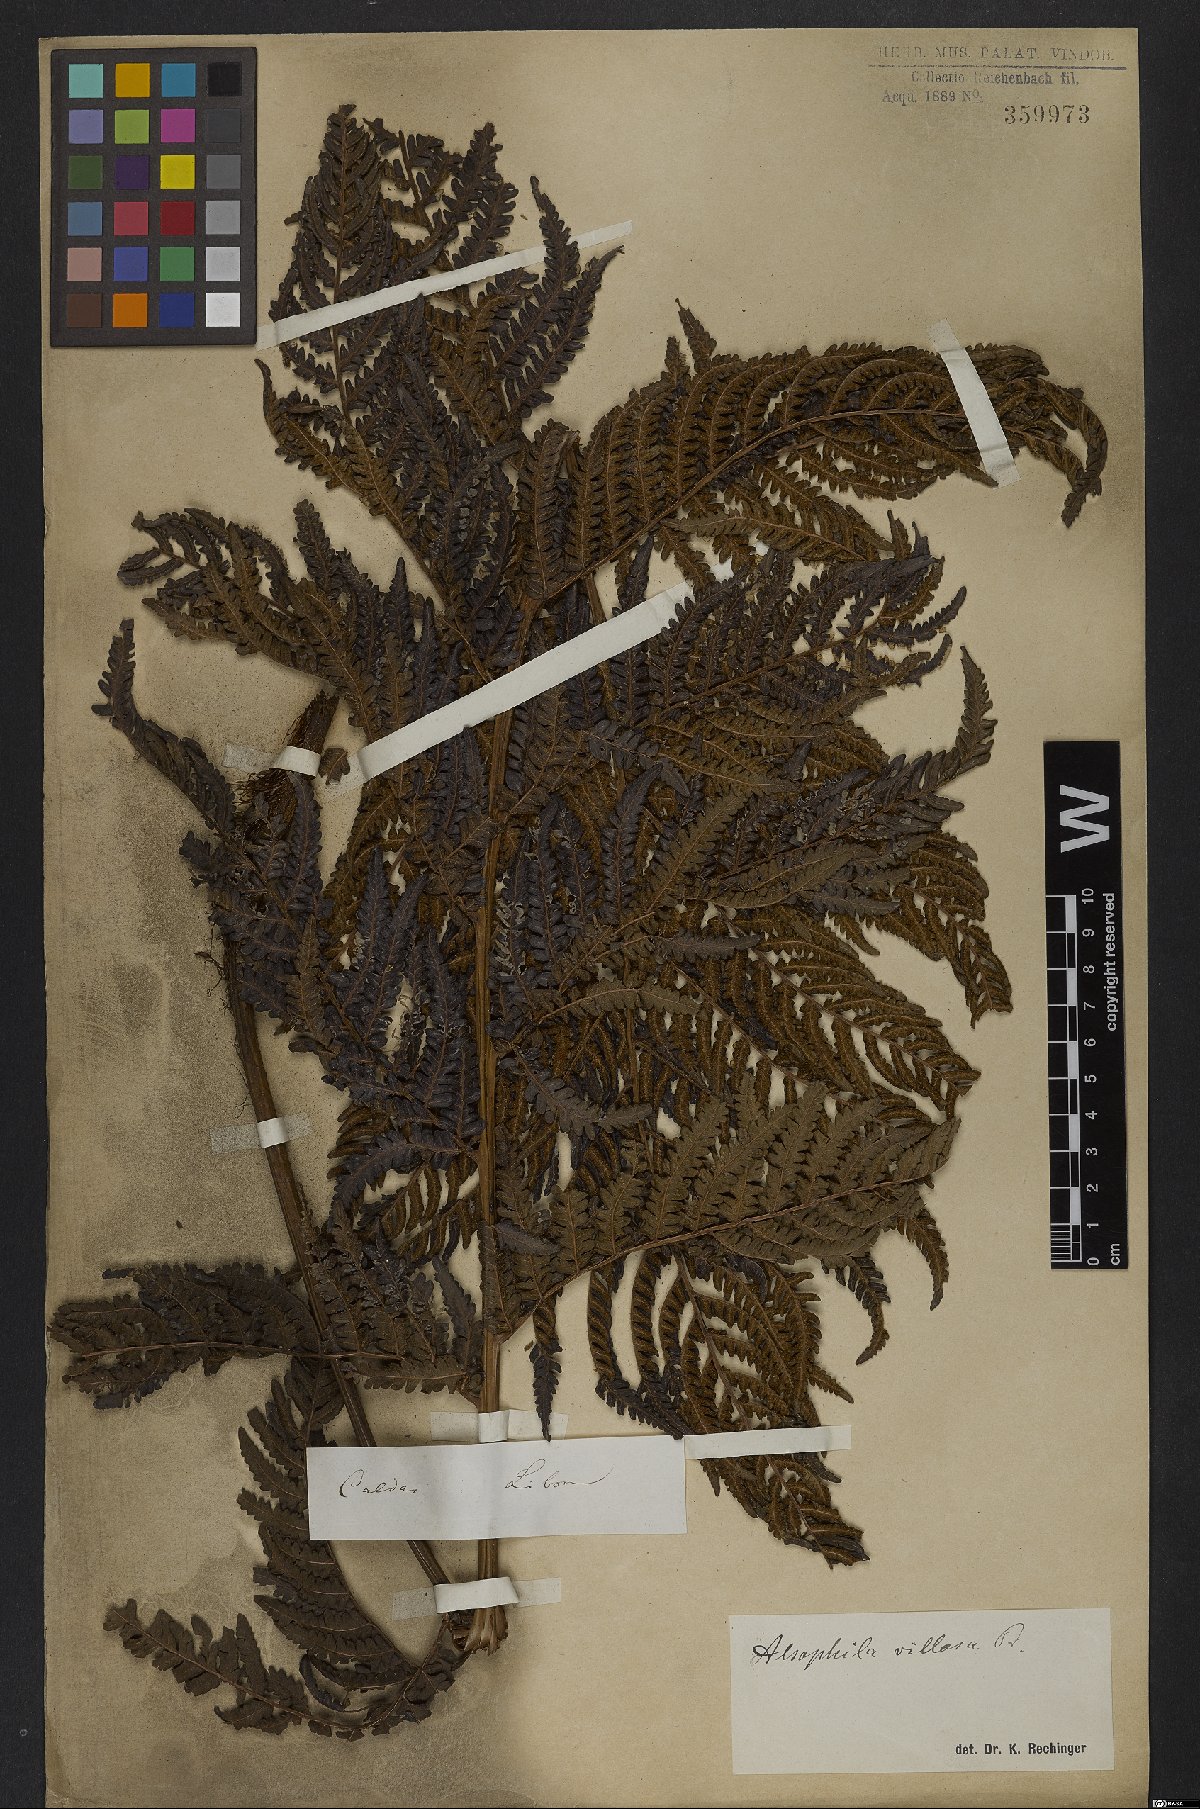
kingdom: Plantae
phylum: Tracheophyta
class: Polypodiopsida
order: Cyatheales
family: Cyatheaceae
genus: Cyathea
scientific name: Cyathea villosa
